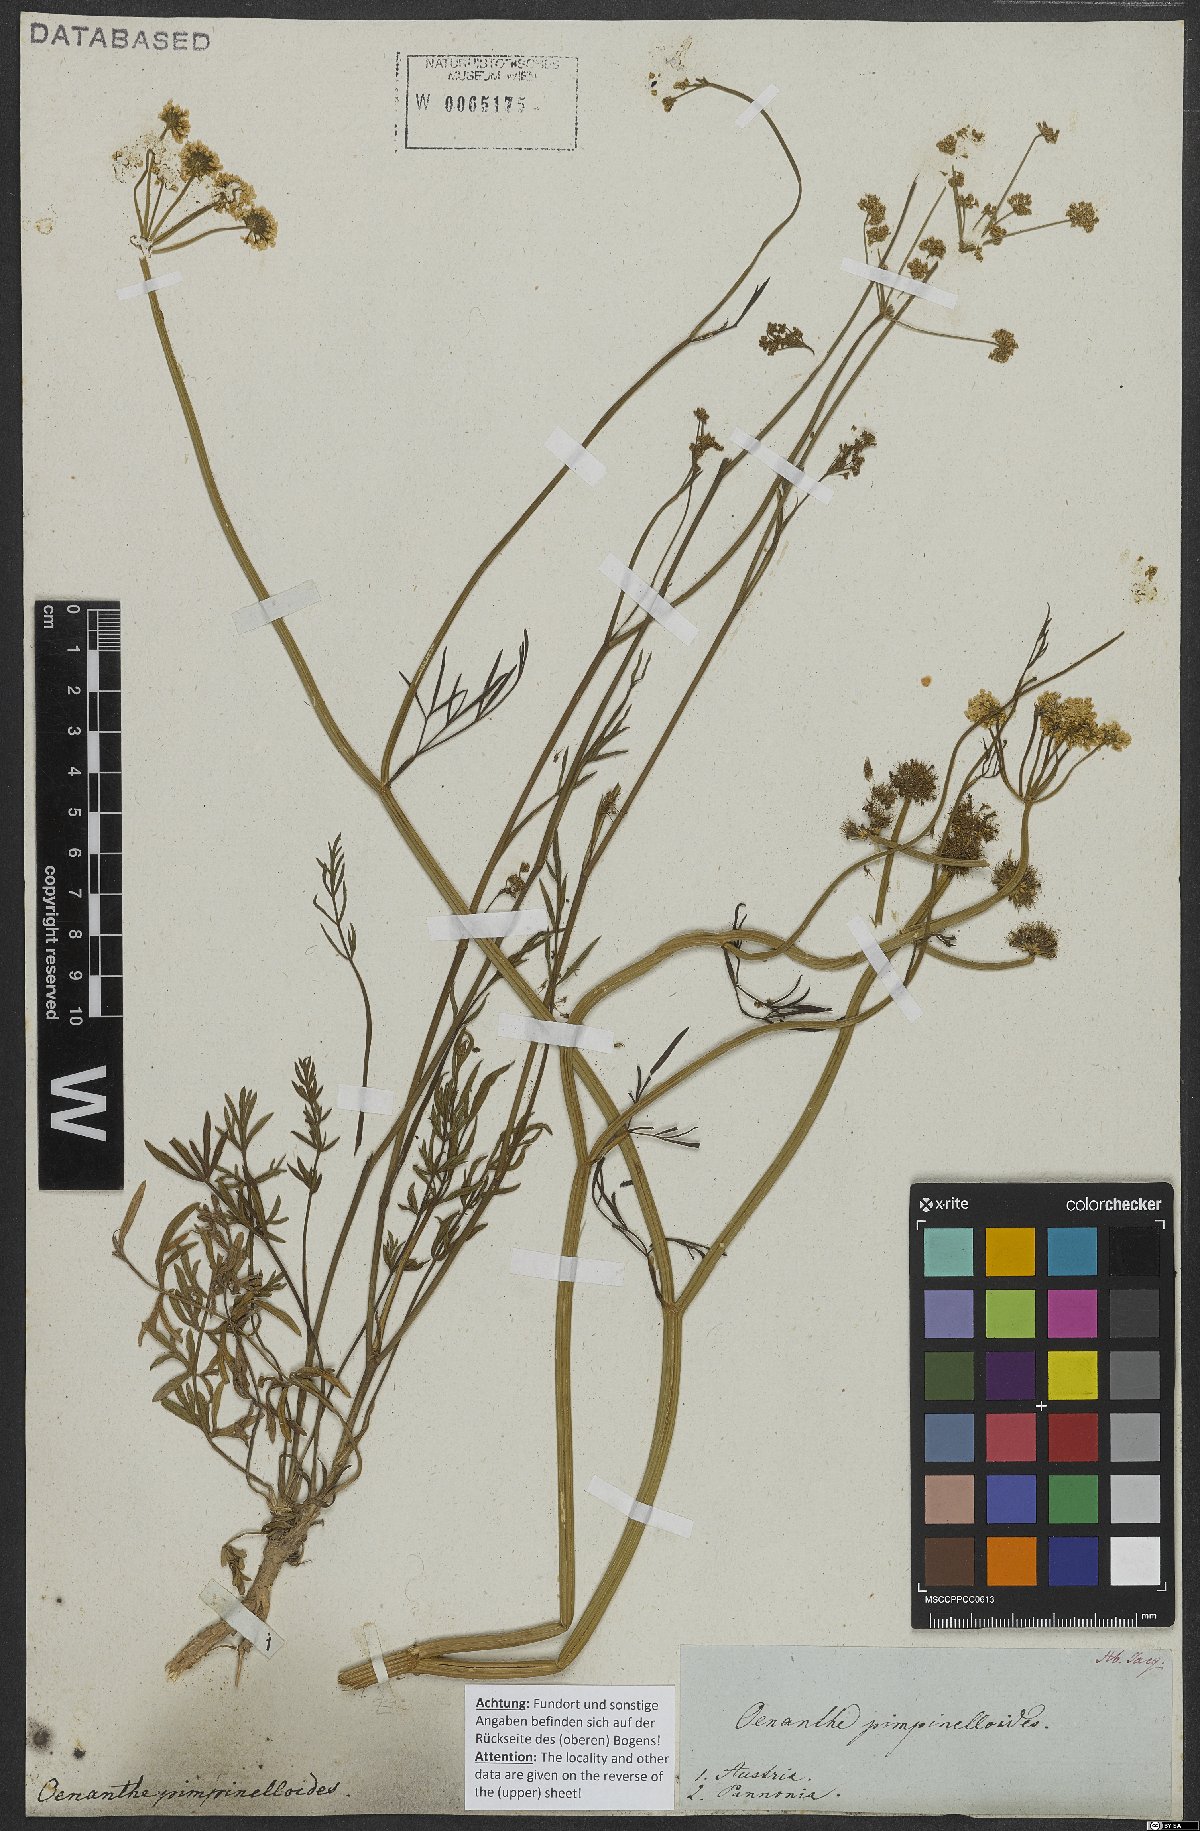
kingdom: Plantae
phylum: Tracheophyta
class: Magnoliopsida
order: Apiales
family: Apiaceae
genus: Oenanthe
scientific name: Oenanthe pimpinelloides
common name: Corky-fruited water-dropwort
